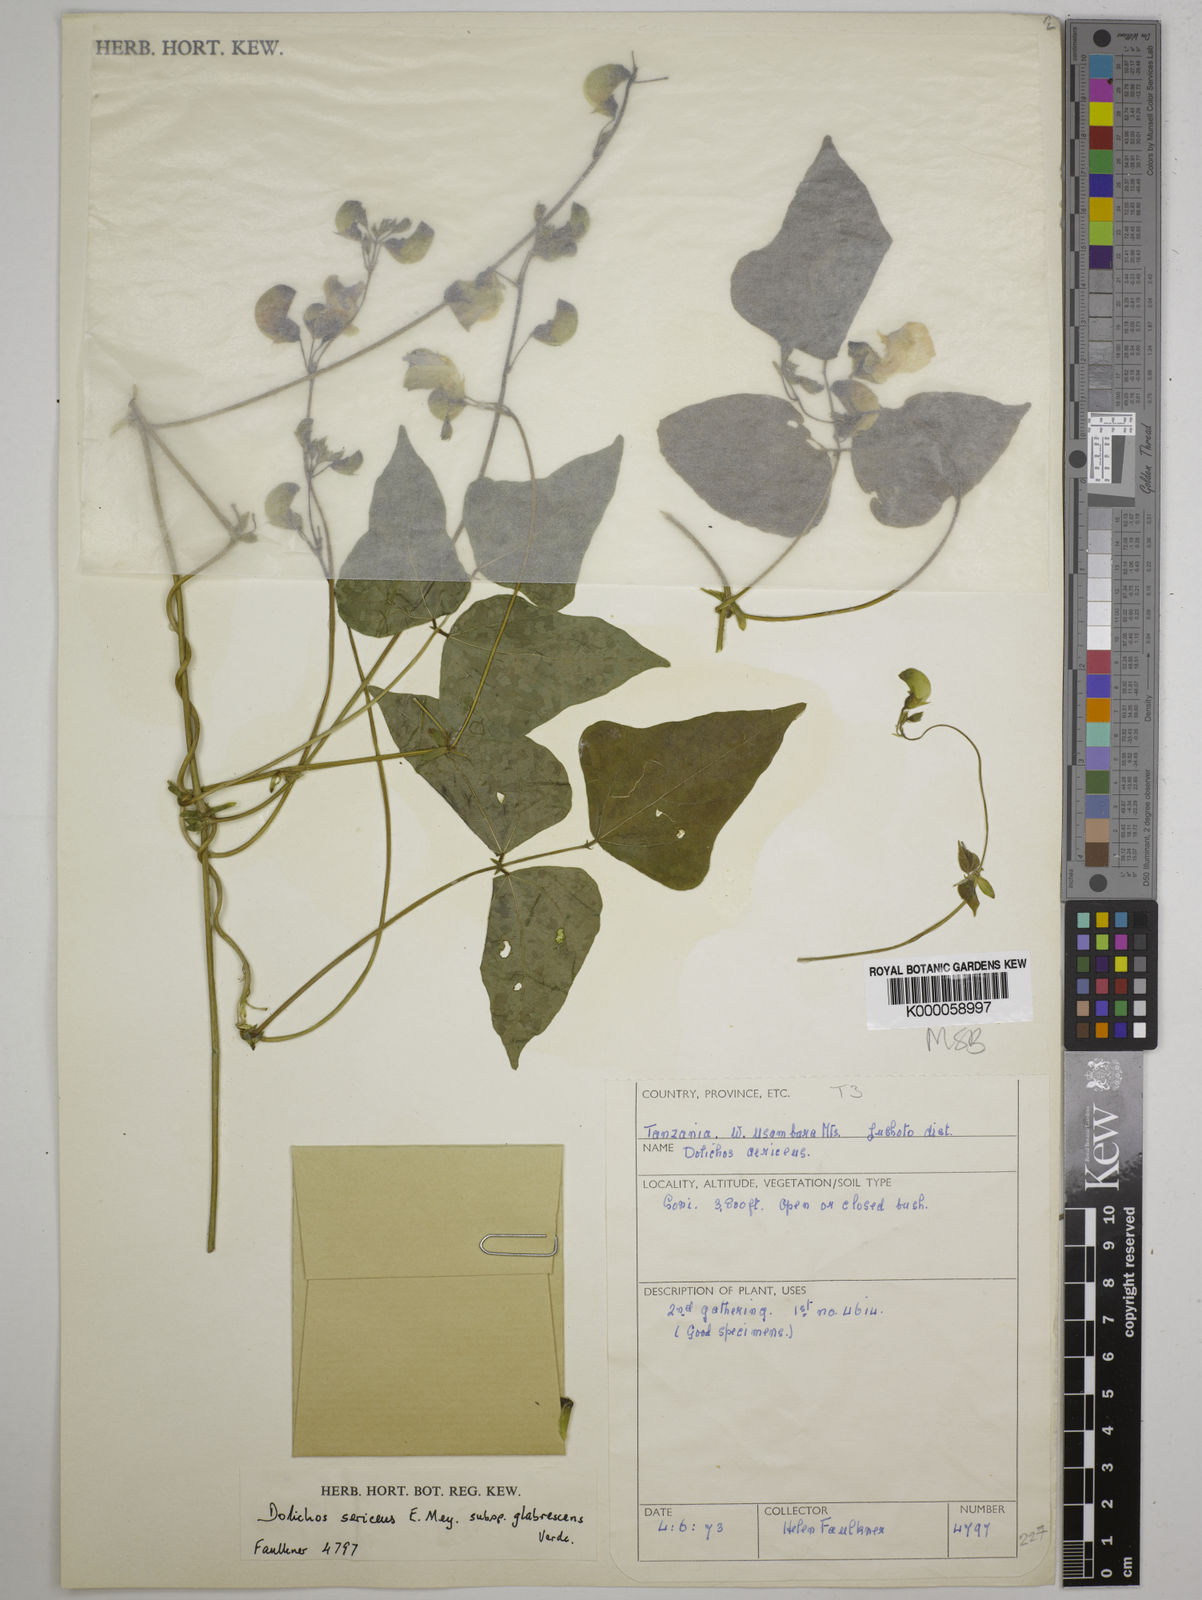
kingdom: Plantae
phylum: Tracheophyta
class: Magnoliopsida
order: Fabales
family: Fabaceae
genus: Dolichos
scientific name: Dolichos sericeus
